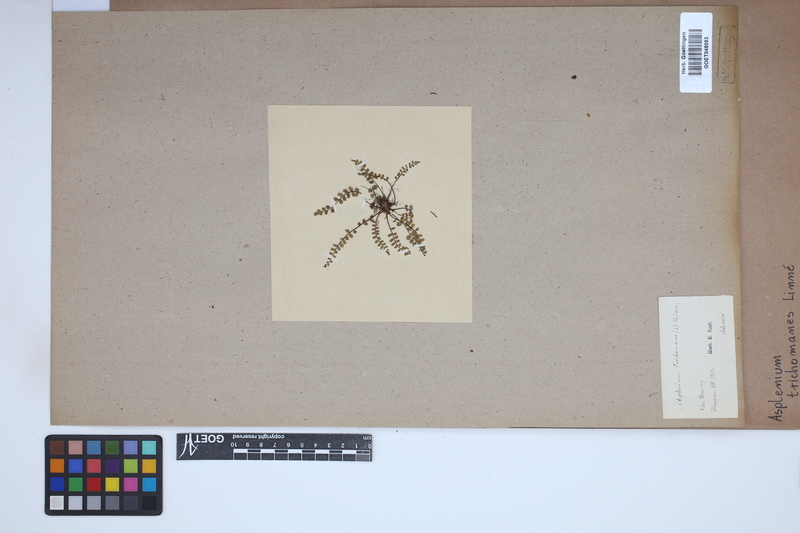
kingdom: Plantae
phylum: Tracheophyta
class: Polypodiopsida
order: Polypodiales
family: Aspleniaceae
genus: Asplenium
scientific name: Asplenium trichomanes
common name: Maidenhair spleenwort
